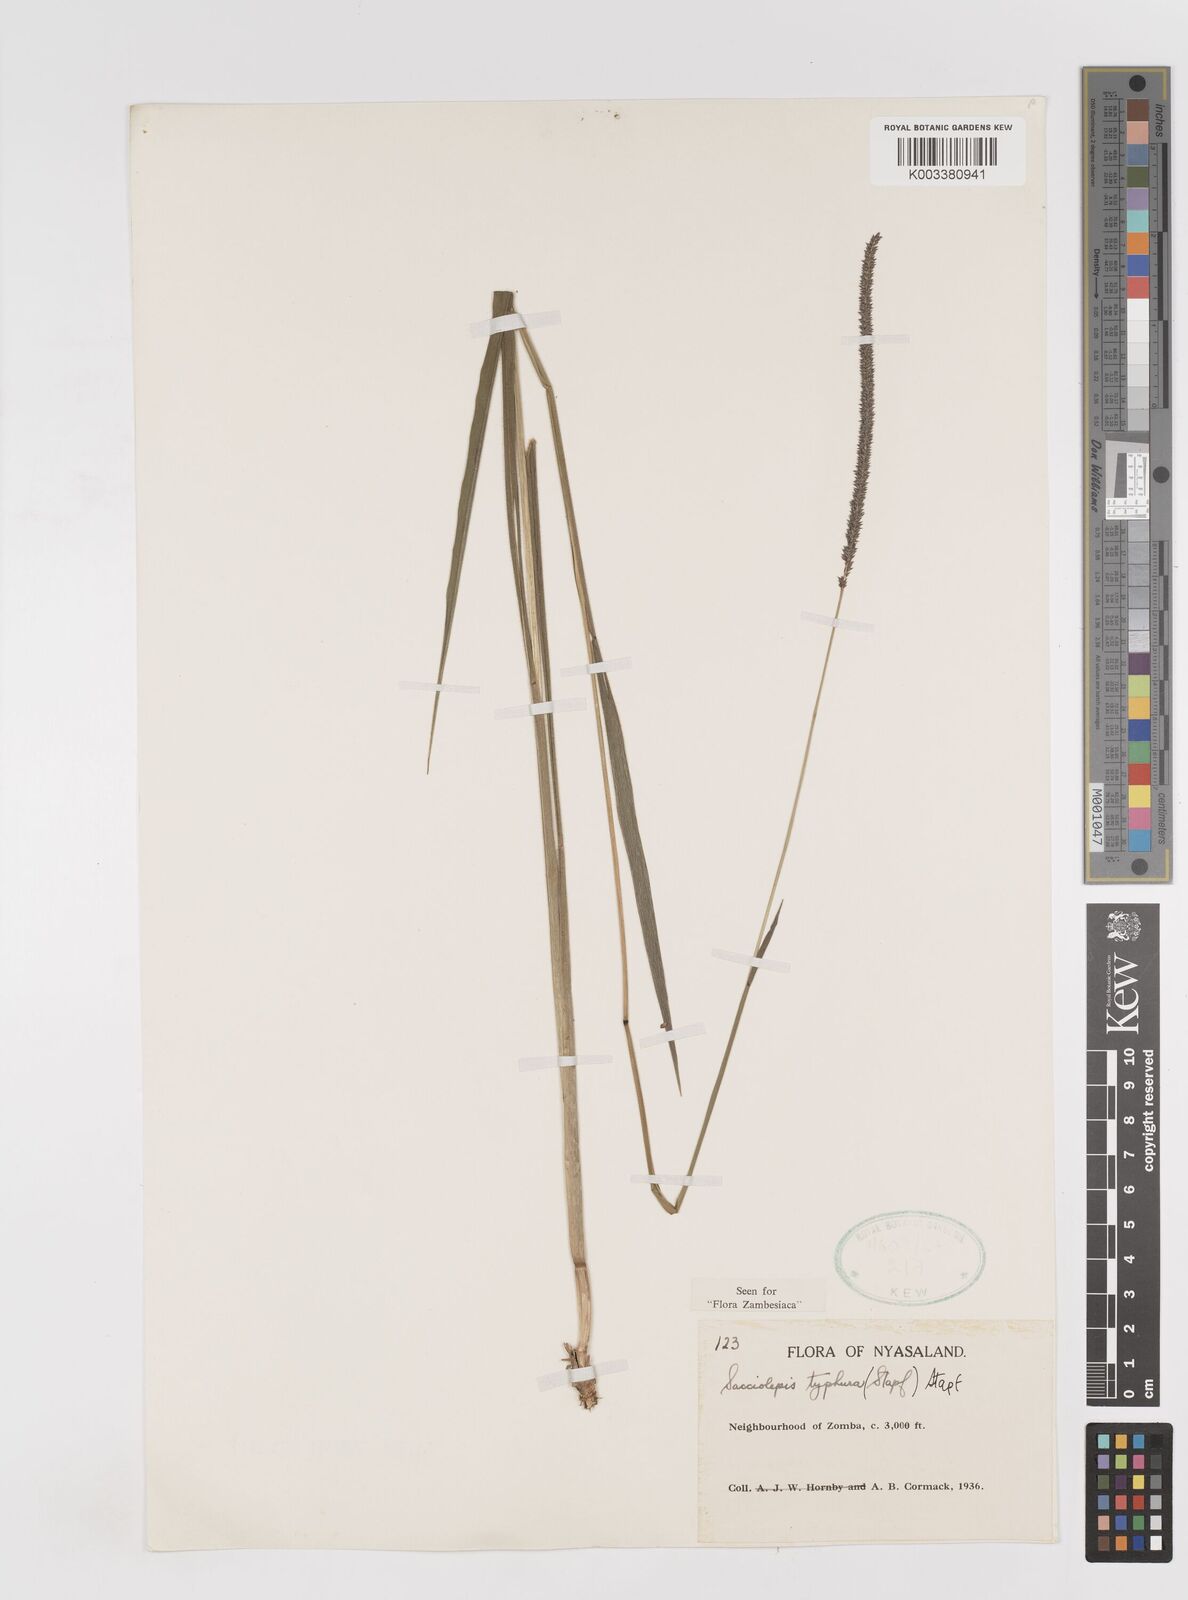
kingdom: Plantae
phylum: Tracheophyta
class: Liliopsida
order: Poales
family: Poaceae
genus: Sacciolepis
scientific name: Sacciolepis typhura
